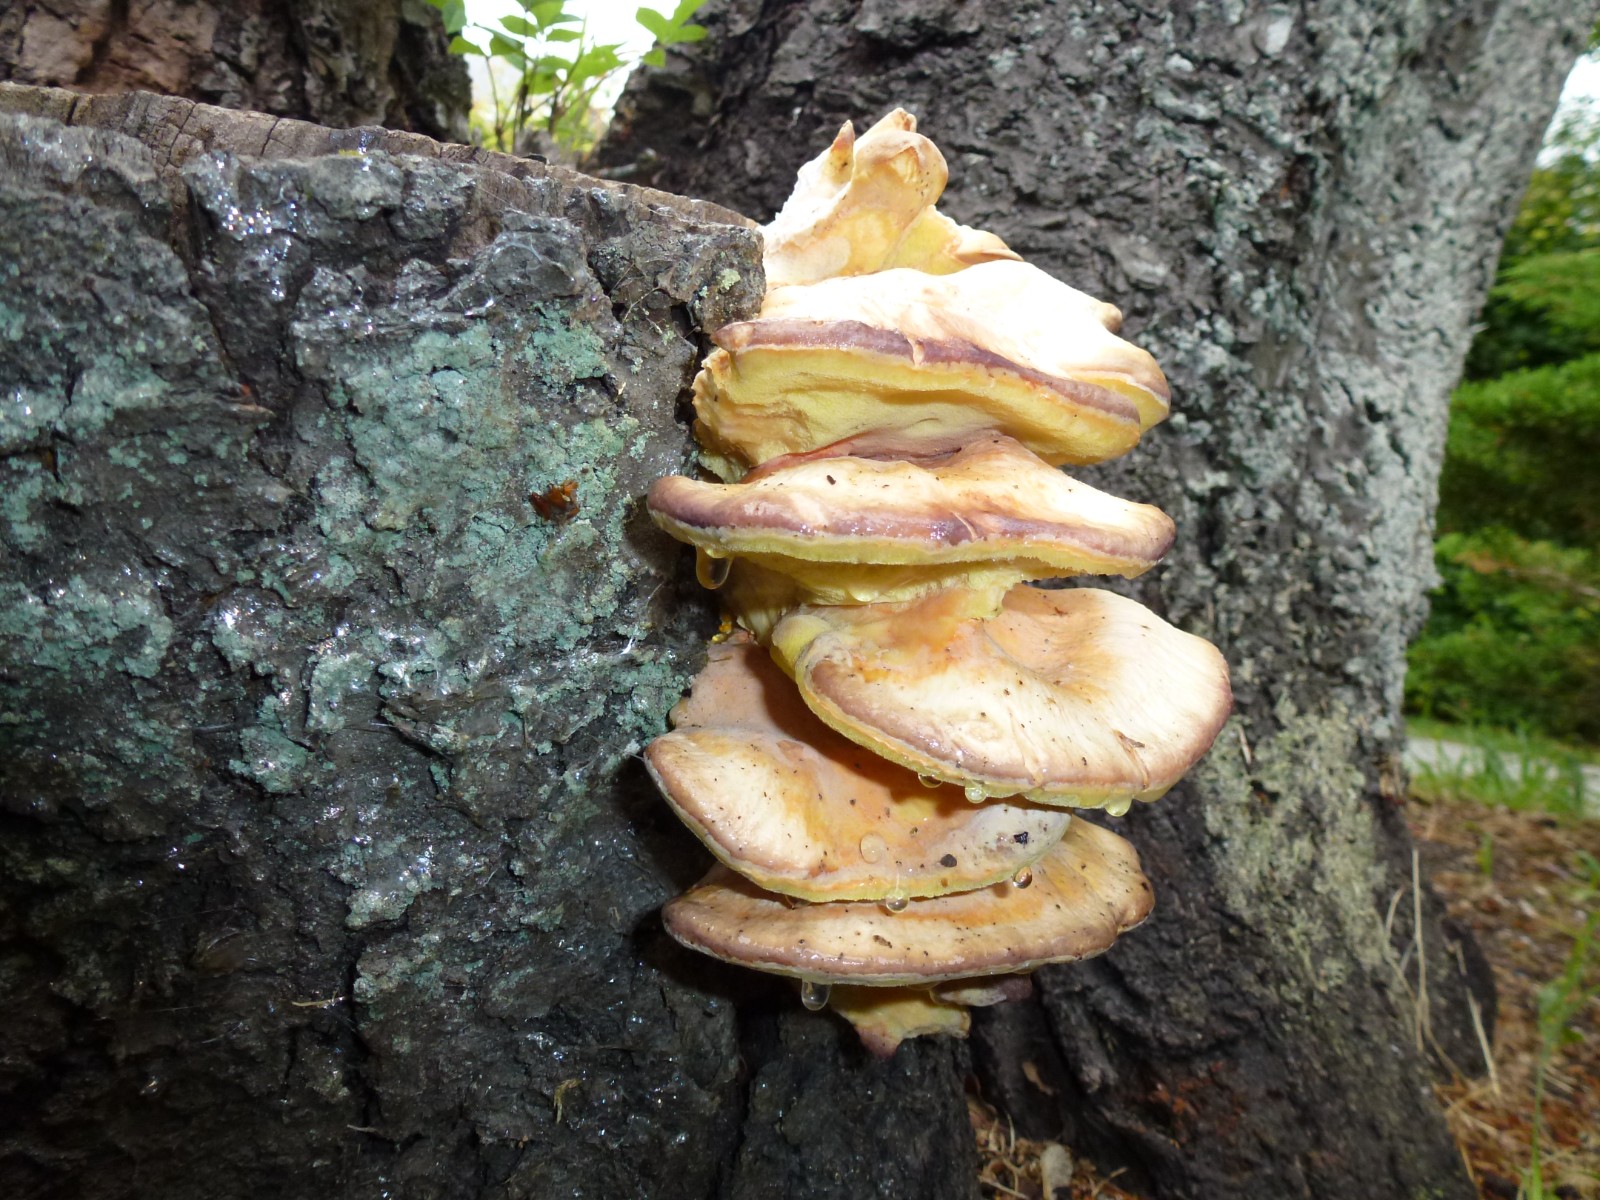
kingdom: Fungi
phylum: Basidiomycota
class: Agaricomycetes
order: Polyporales
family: Laetiporaceae
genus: Laetiporus
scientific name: Laetiporus sulphureus
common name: svovlporesvamp
